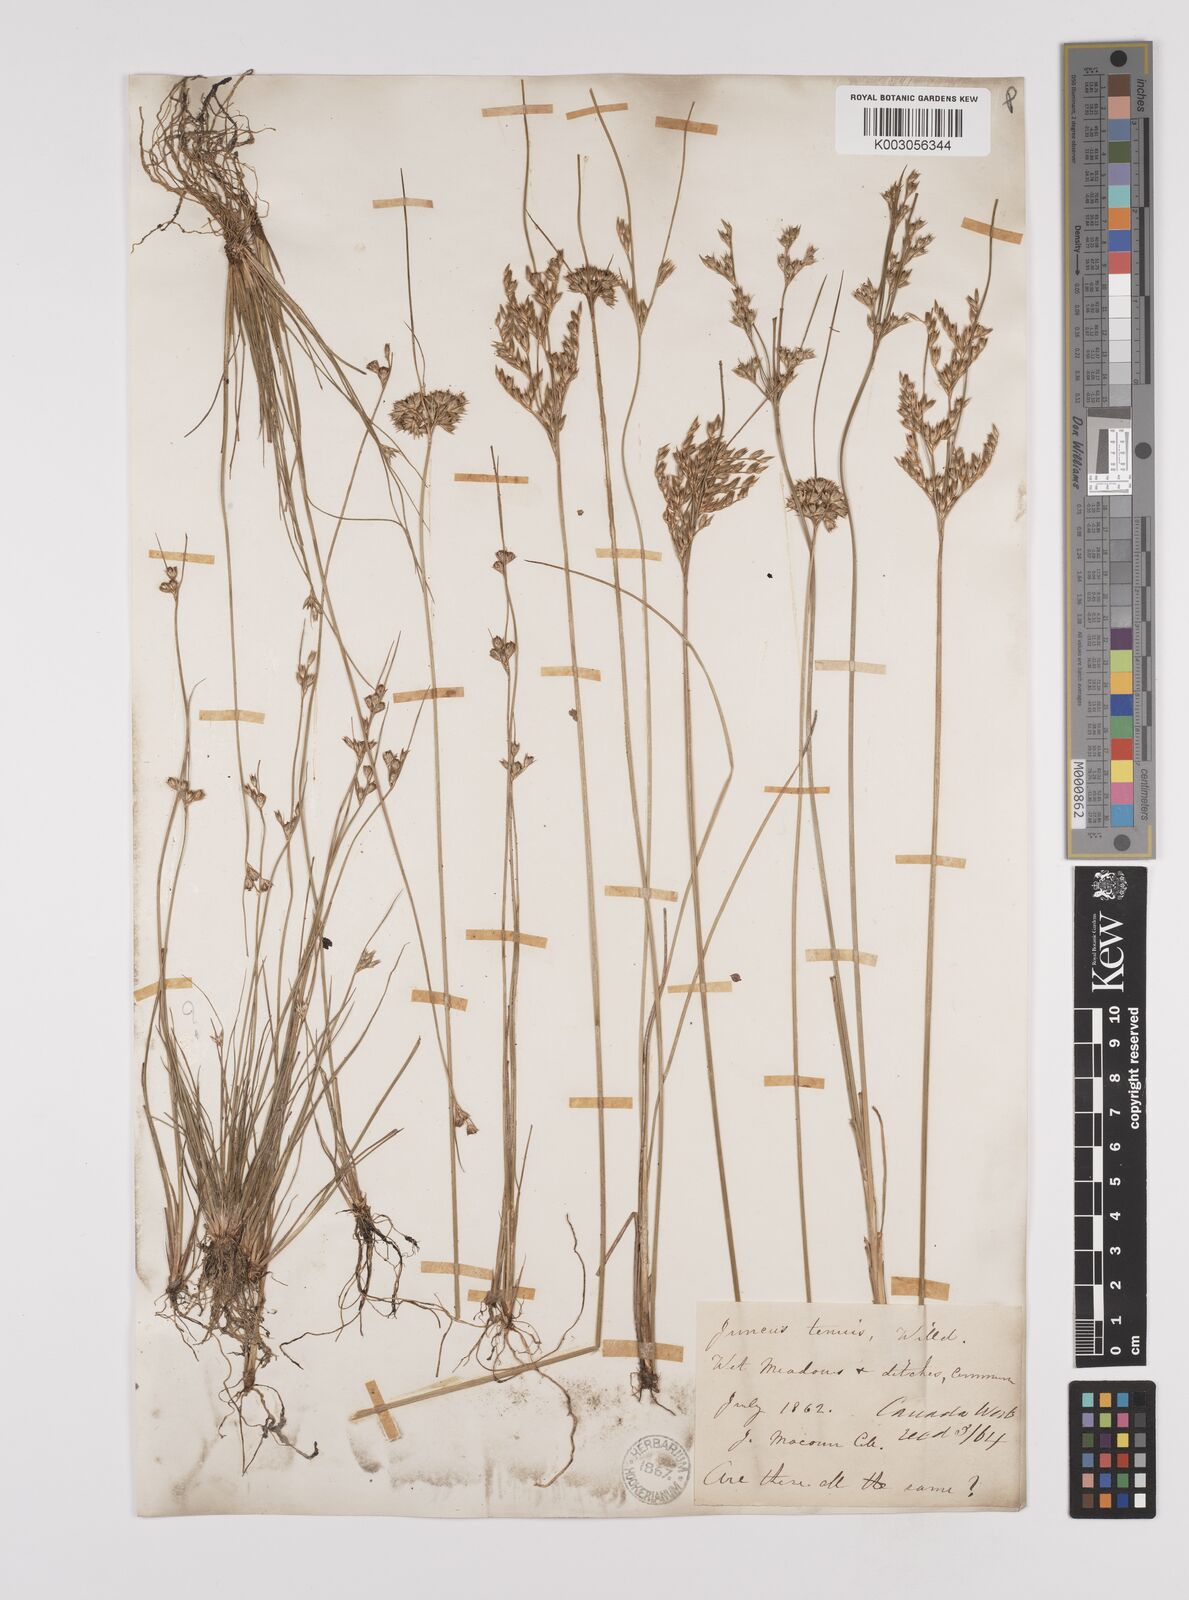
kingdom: Plantae
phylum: Tracheophyta
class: Liliopsida
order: Poales
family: Juncaceae
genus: Juncus
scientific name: Juncus tenuis
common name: Slender rush
